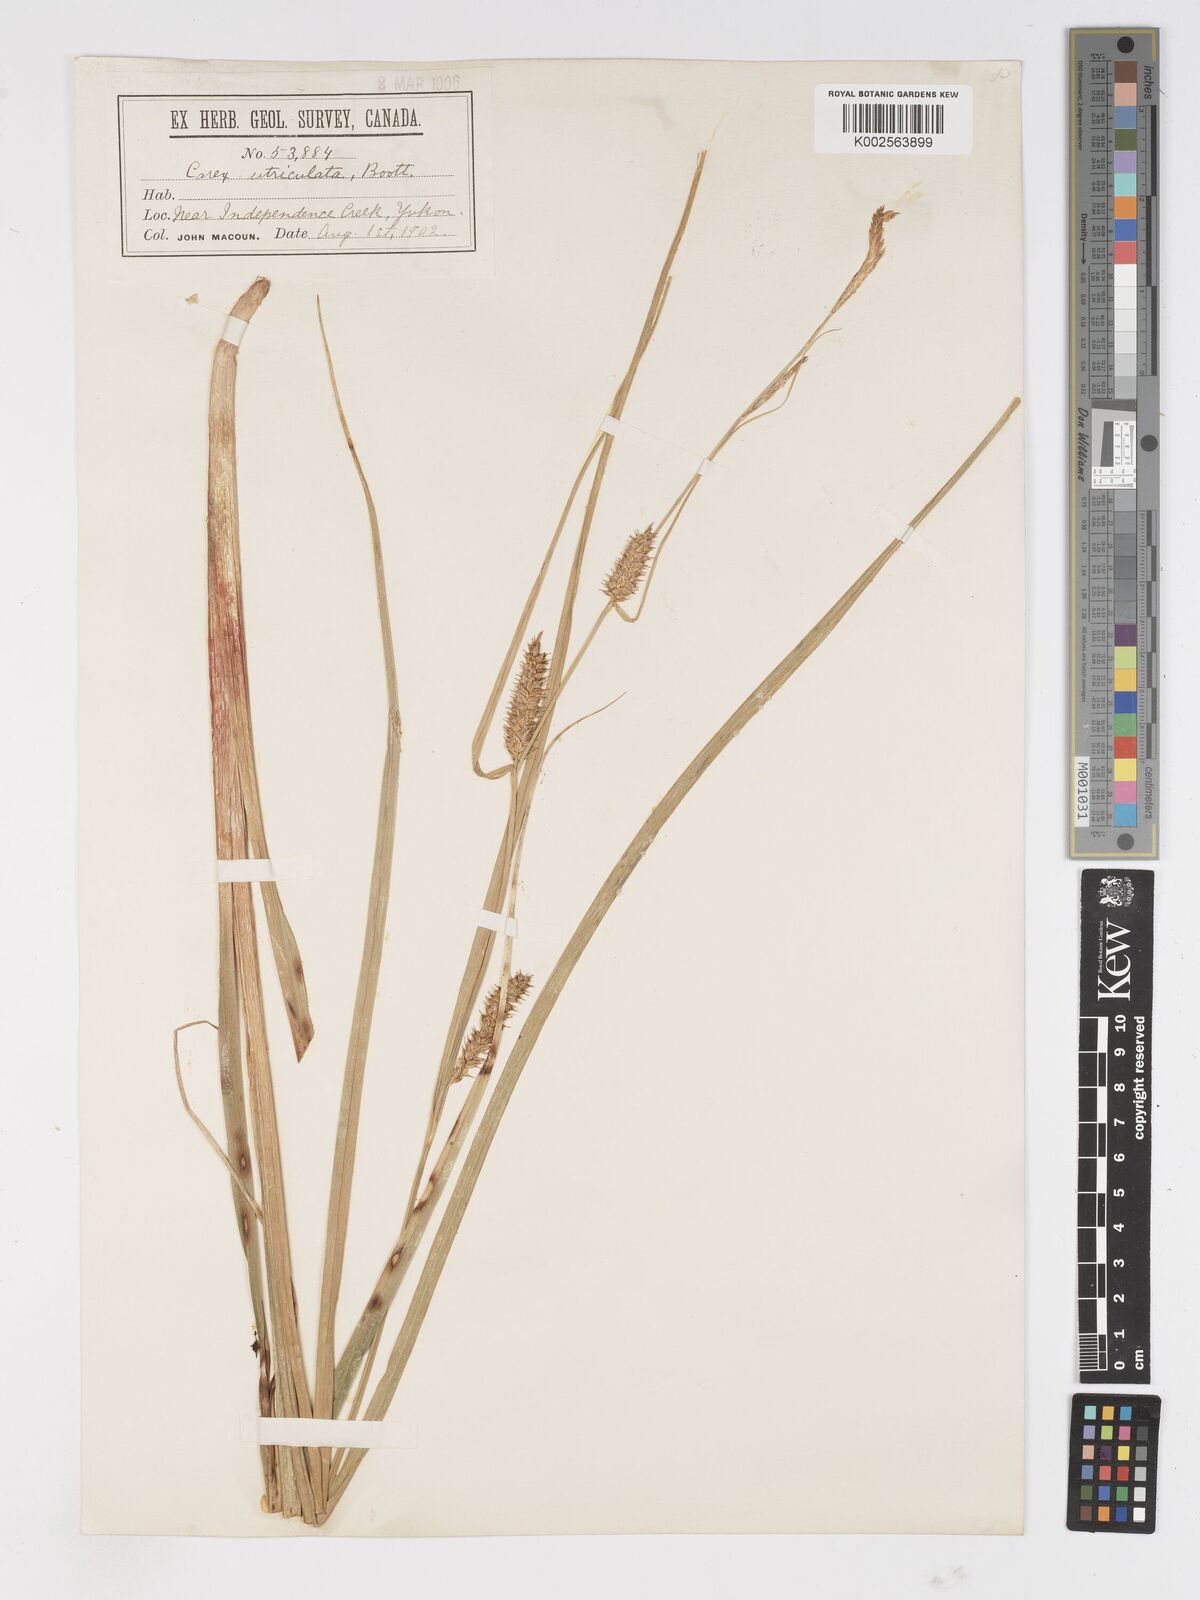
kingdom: Plantae
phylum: Tracheophyta
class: Liliopsida
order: Poales
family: Cyperaceae
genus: Carex
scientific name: Carex rostrata
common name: Bottle sedge
